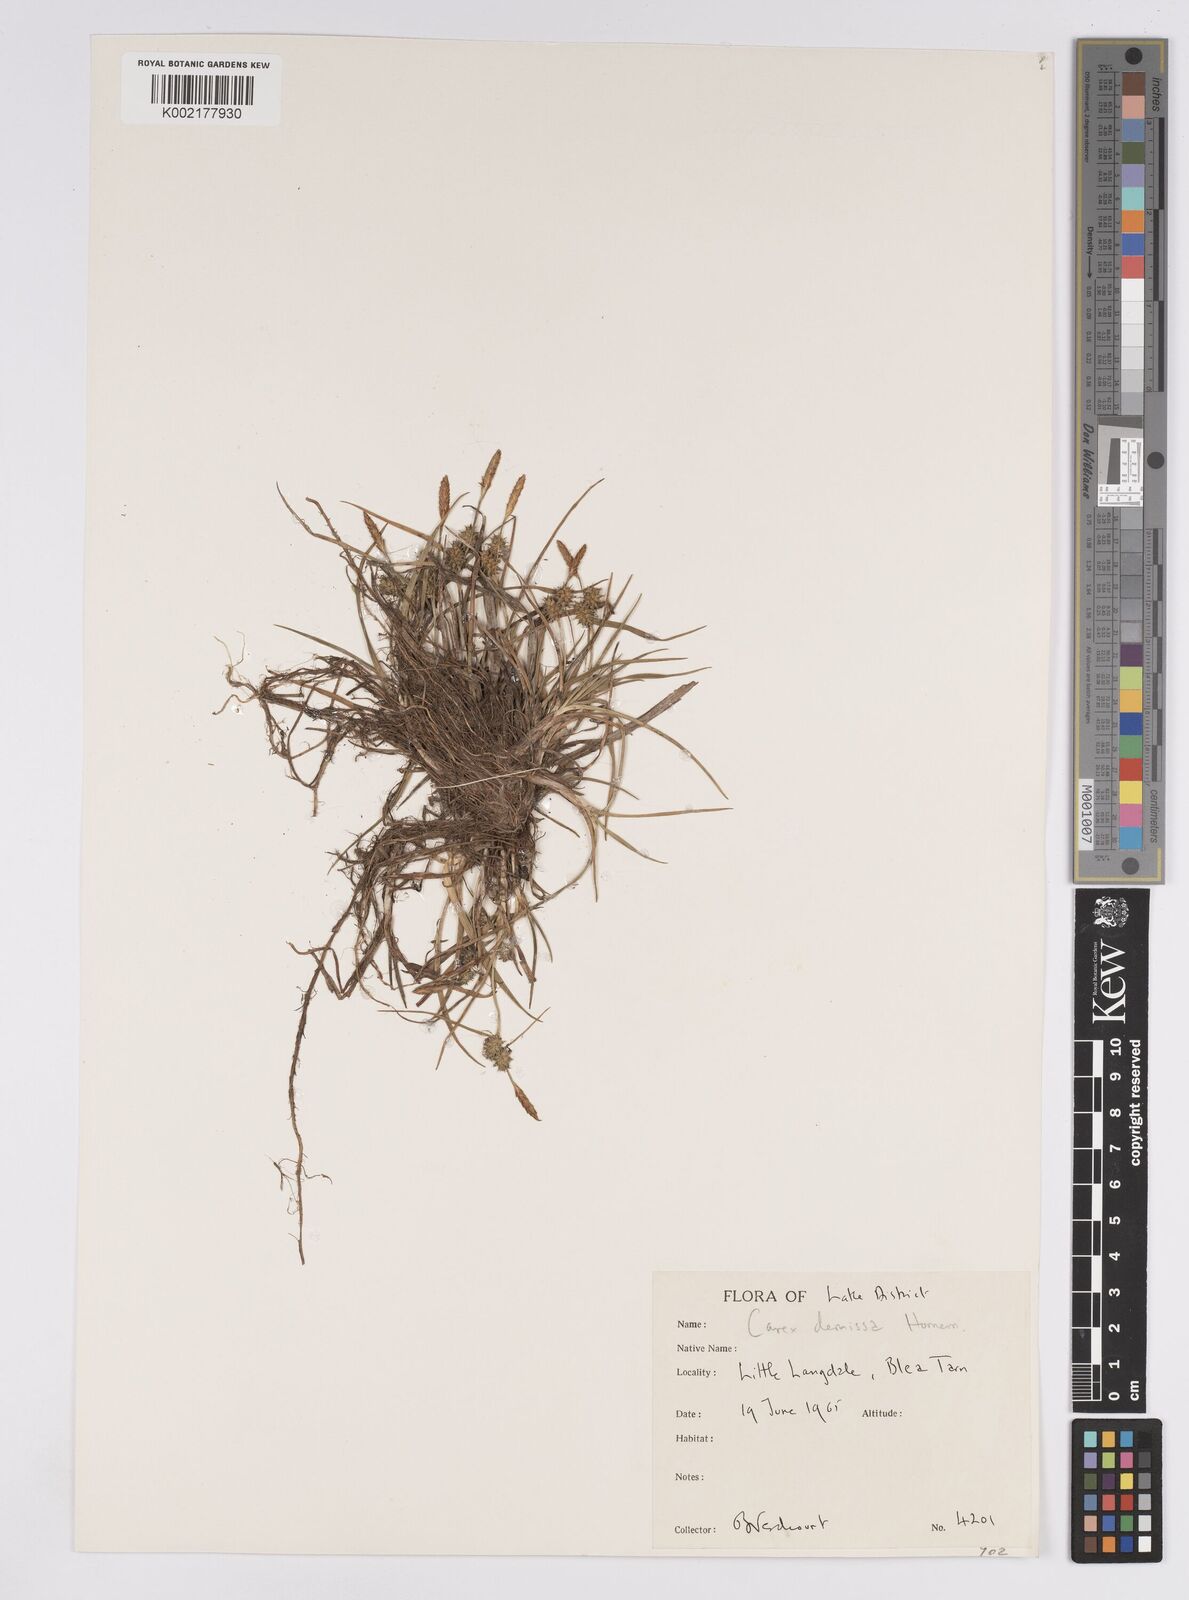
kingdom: Plantae
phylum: Tracheophyta
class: Liliopsida
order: Poales
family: Cyperaceae
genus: Carex
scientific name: Carex demissa
